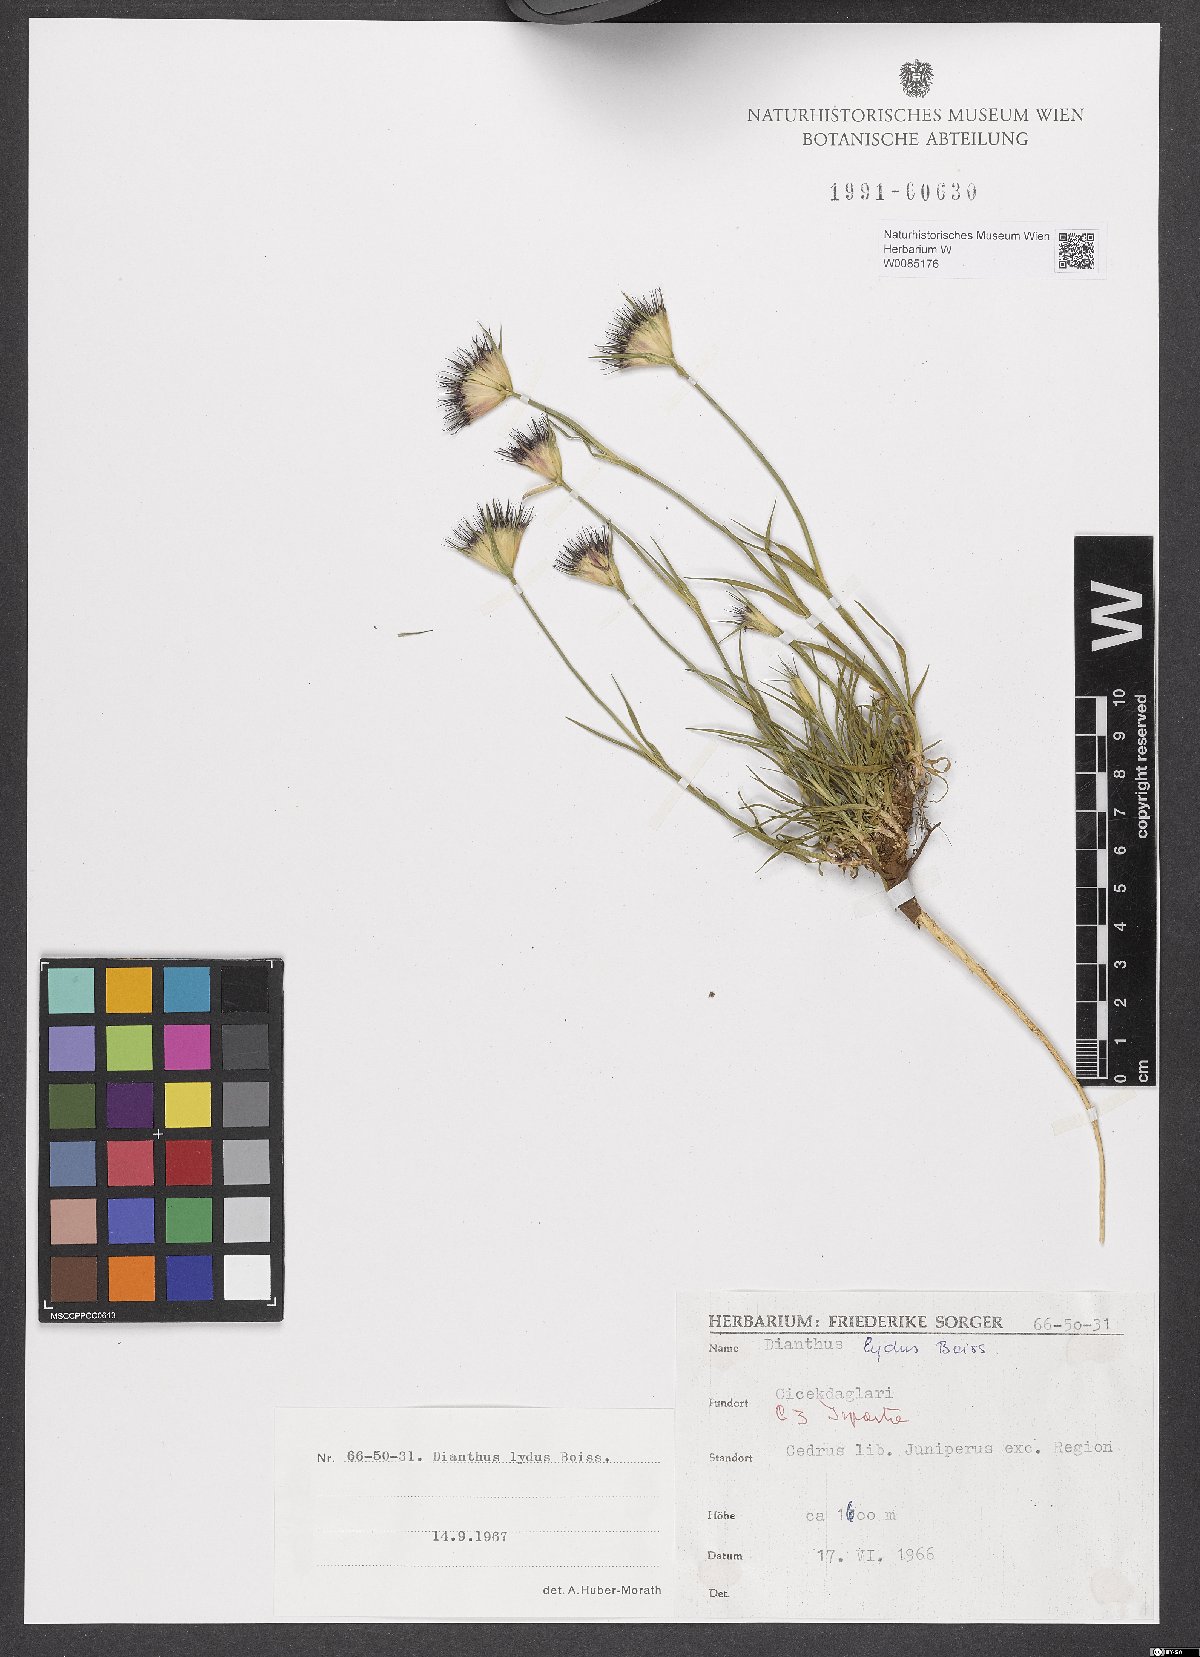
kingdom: Plantae
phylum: Tracheophyta
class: Magnoliopsida
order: Caryophyllales
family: Caryophyllaceae
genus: Dianthus
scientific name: Dianthus lydus
